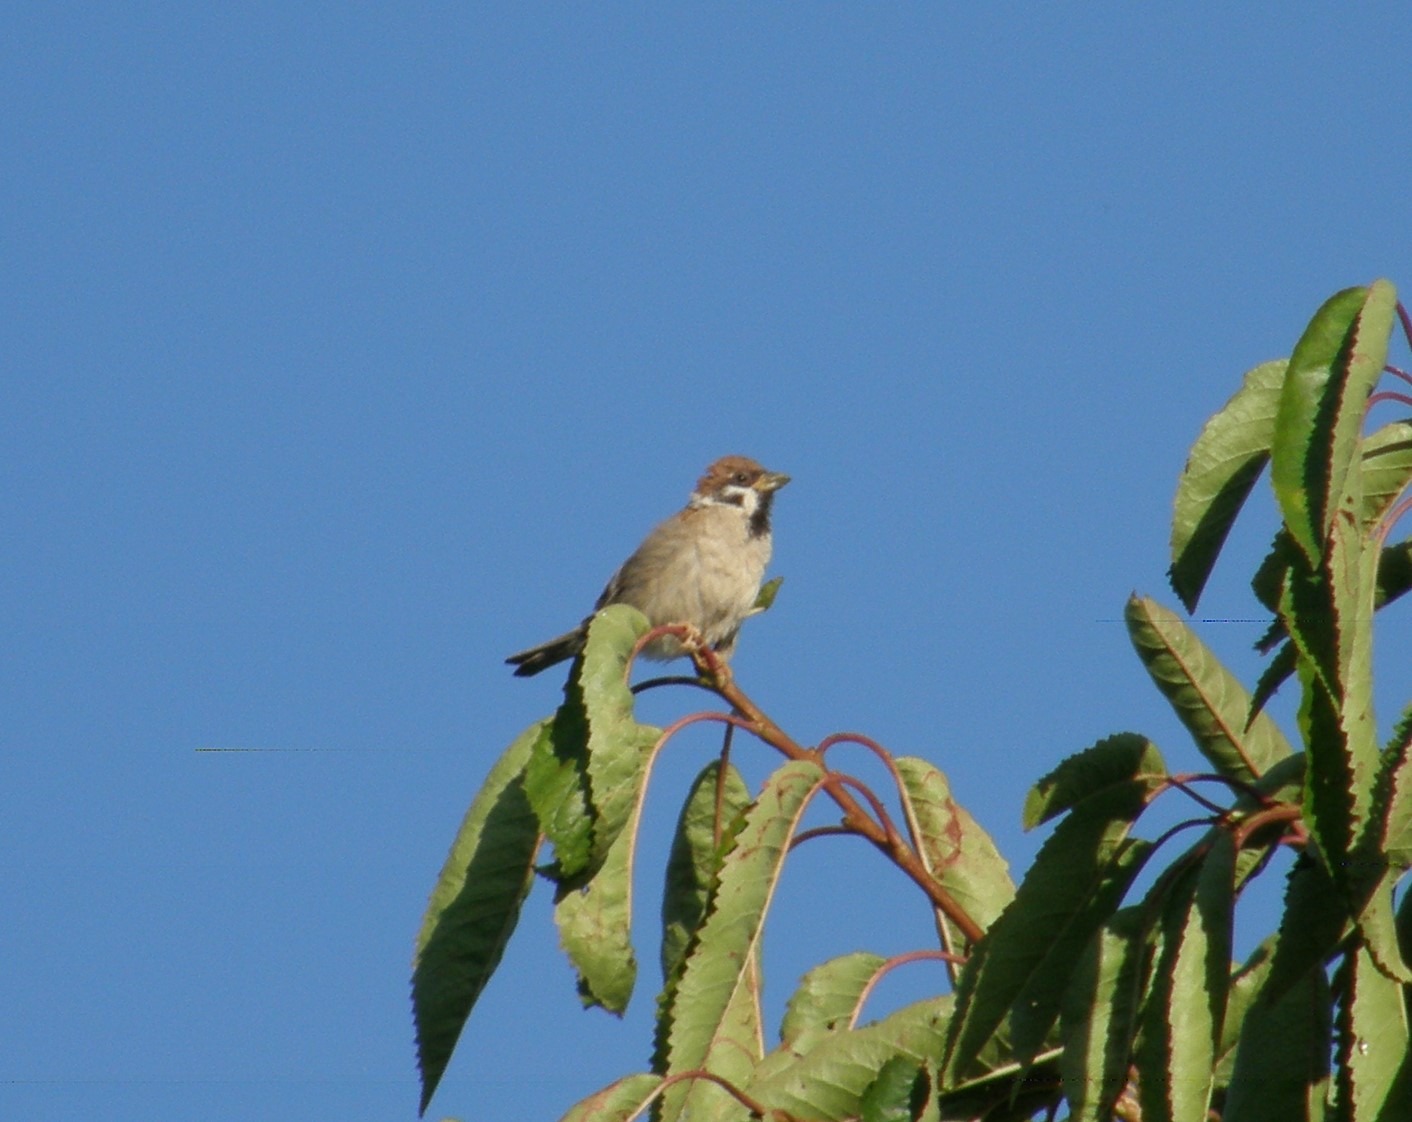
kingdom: Animalia
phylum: Chordata
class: Aves
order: Passeriformes
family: Passeridae
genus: Passer
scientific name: Passer montanus
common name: Skovspurv
